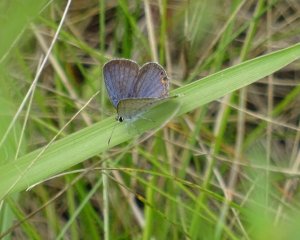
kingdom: Animalia
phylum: Arthropoda
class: Insecta
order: Lepidoptera
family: Lycaenidae
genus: Elkalyce
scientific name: Elkalyce comyntas
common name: Eastern Tailed-Blue
